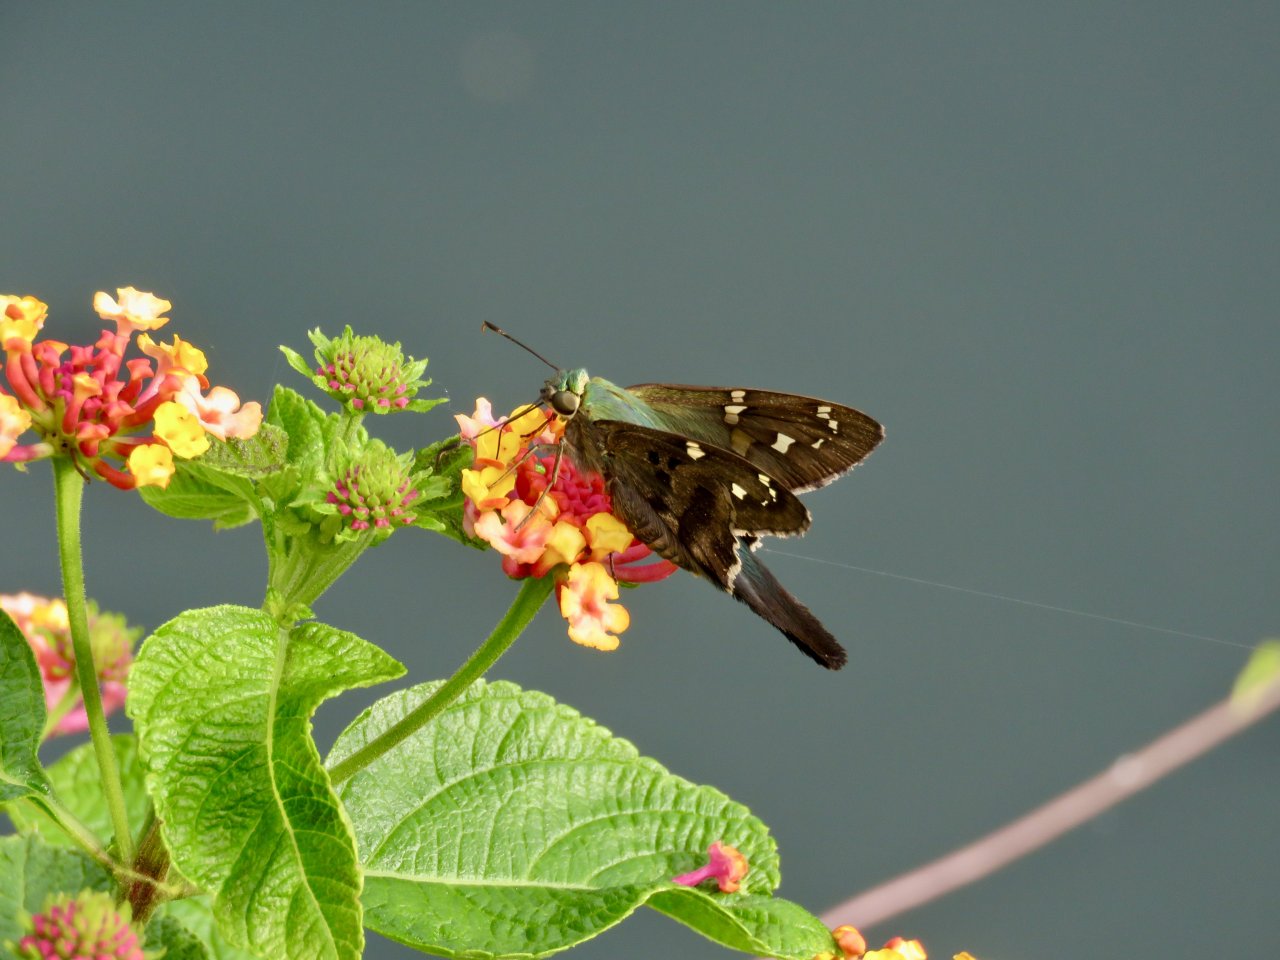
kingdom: Animalia
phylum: Arthropoda
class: Insecta
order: Lepidoptera
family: Hesperiidae
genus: Urbanus
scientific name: Urbanus proteus
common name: Long-tailed Skipper
